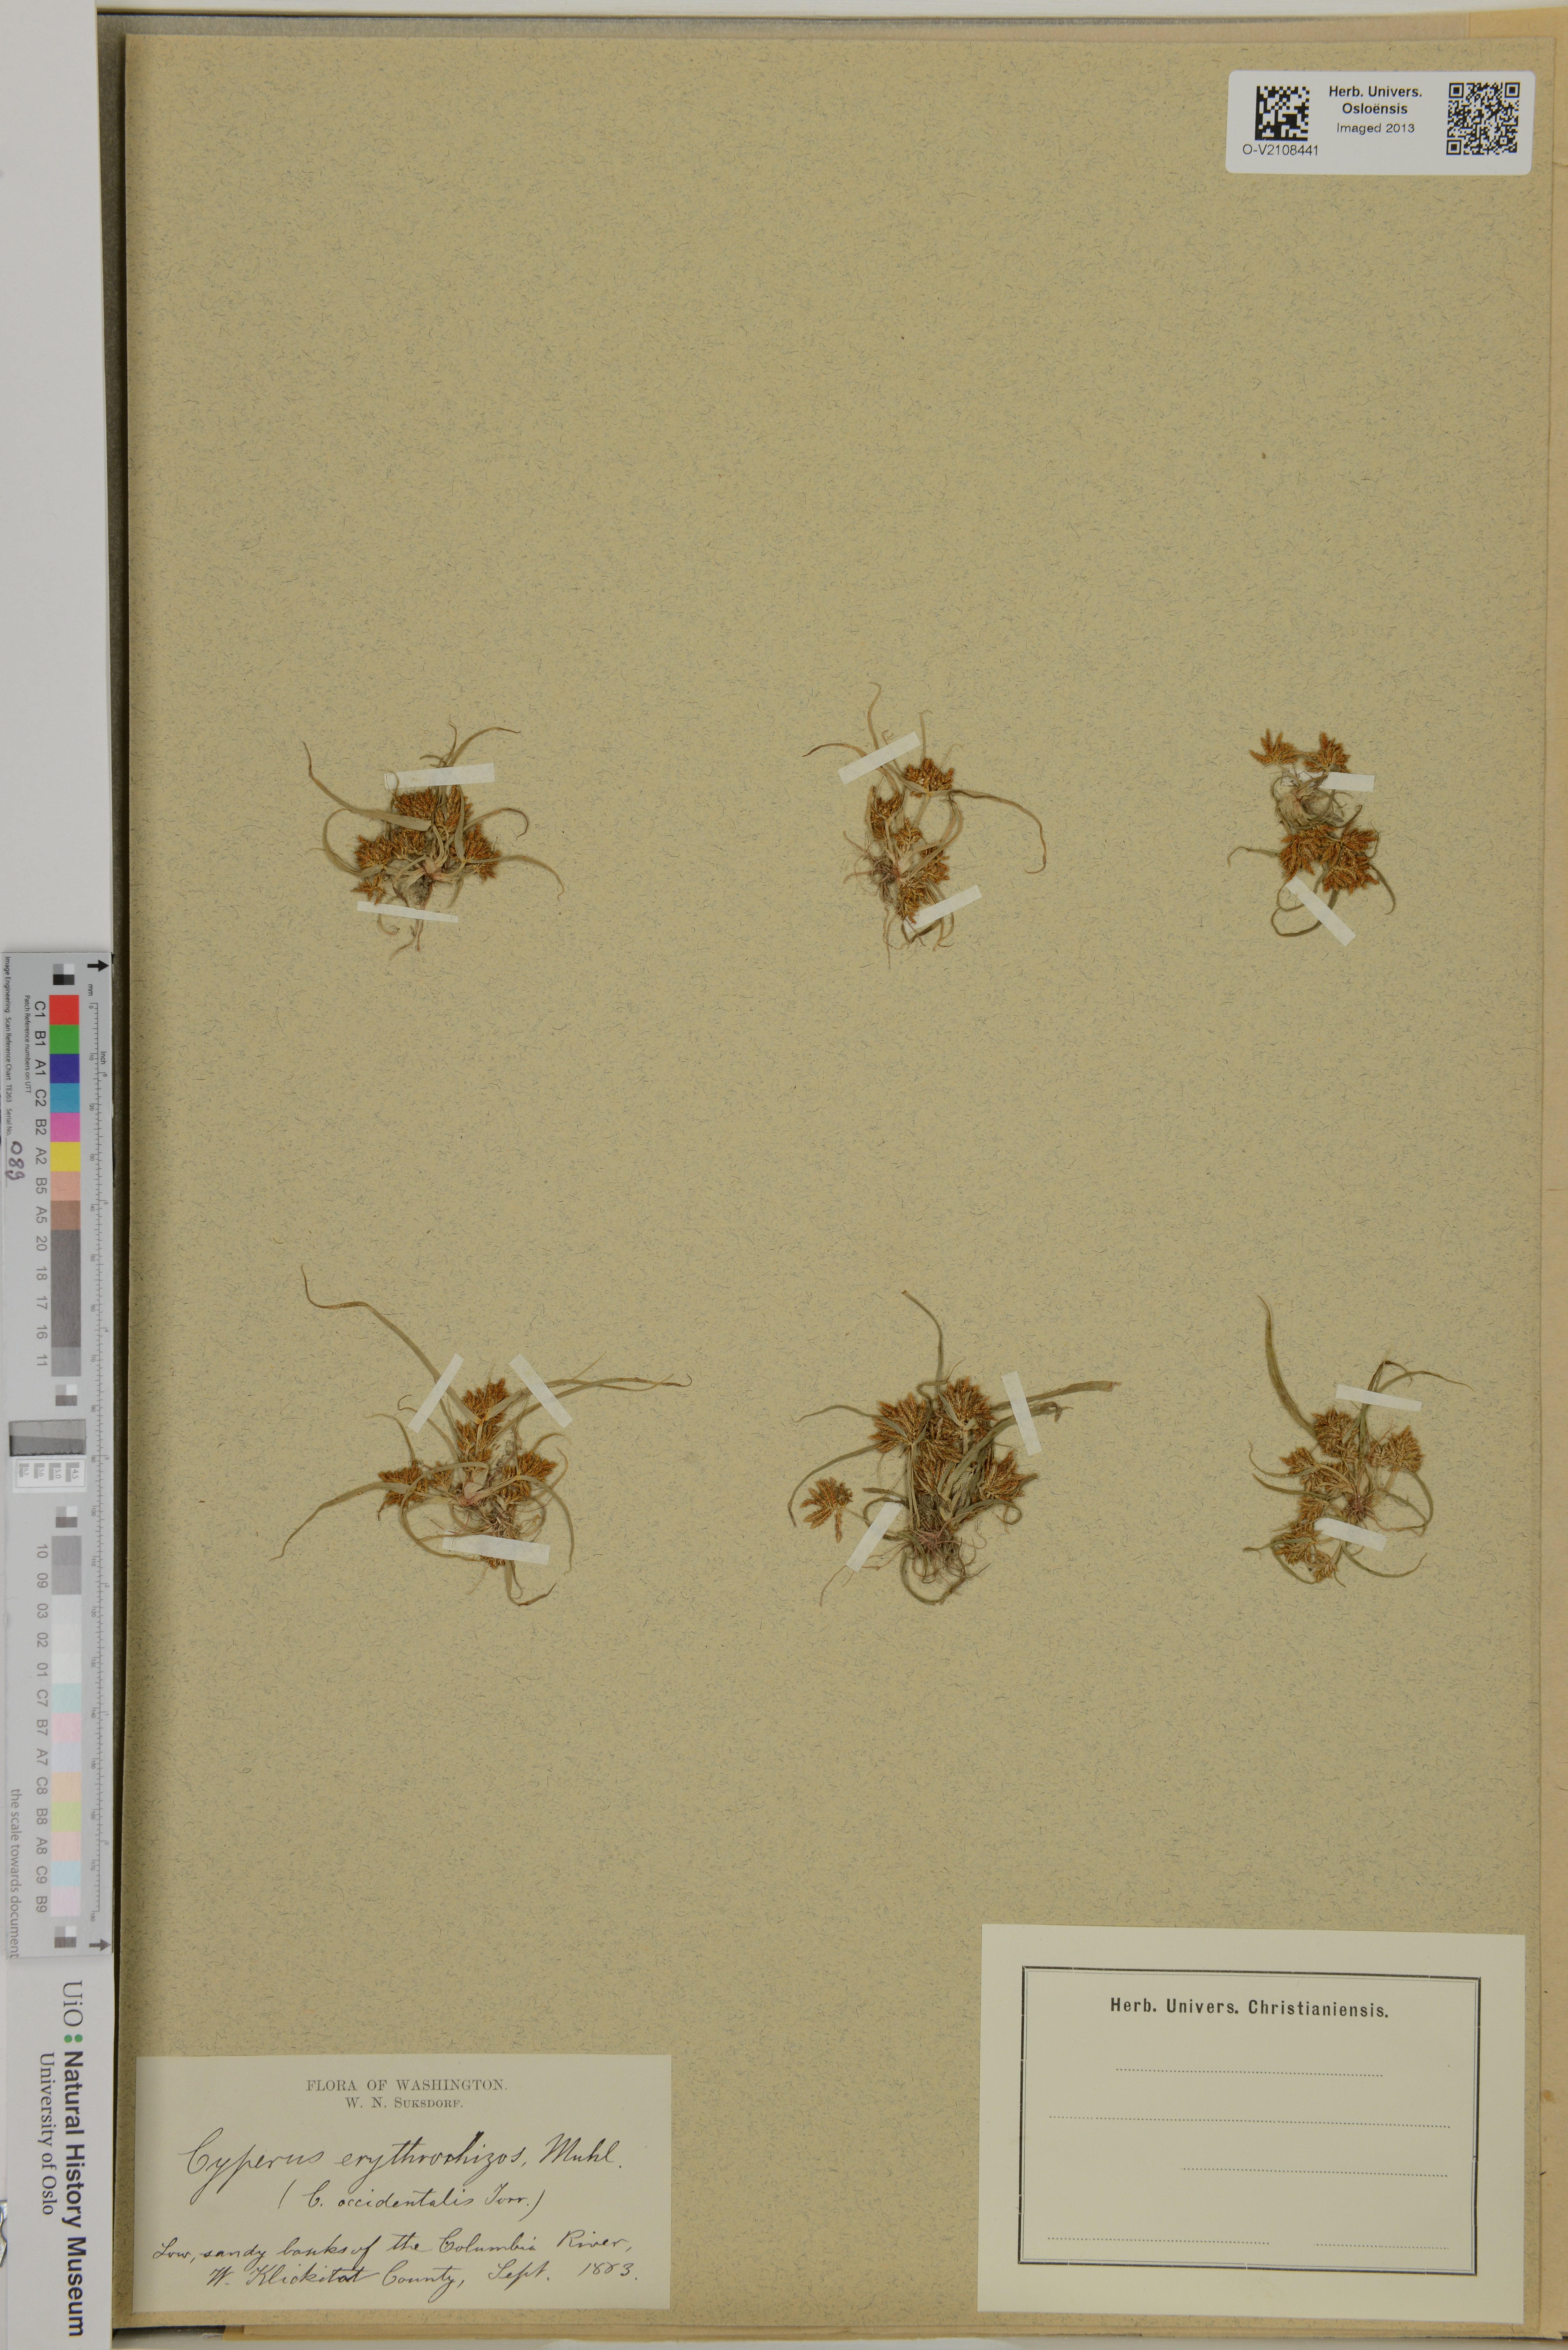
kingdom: Plantae
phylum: Tracheophyta
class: Liliopsida
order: Poales
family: Cyperaceae
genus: Cyperus
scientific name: Cyperus erythrorhizos
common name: Red-root flat sedge
